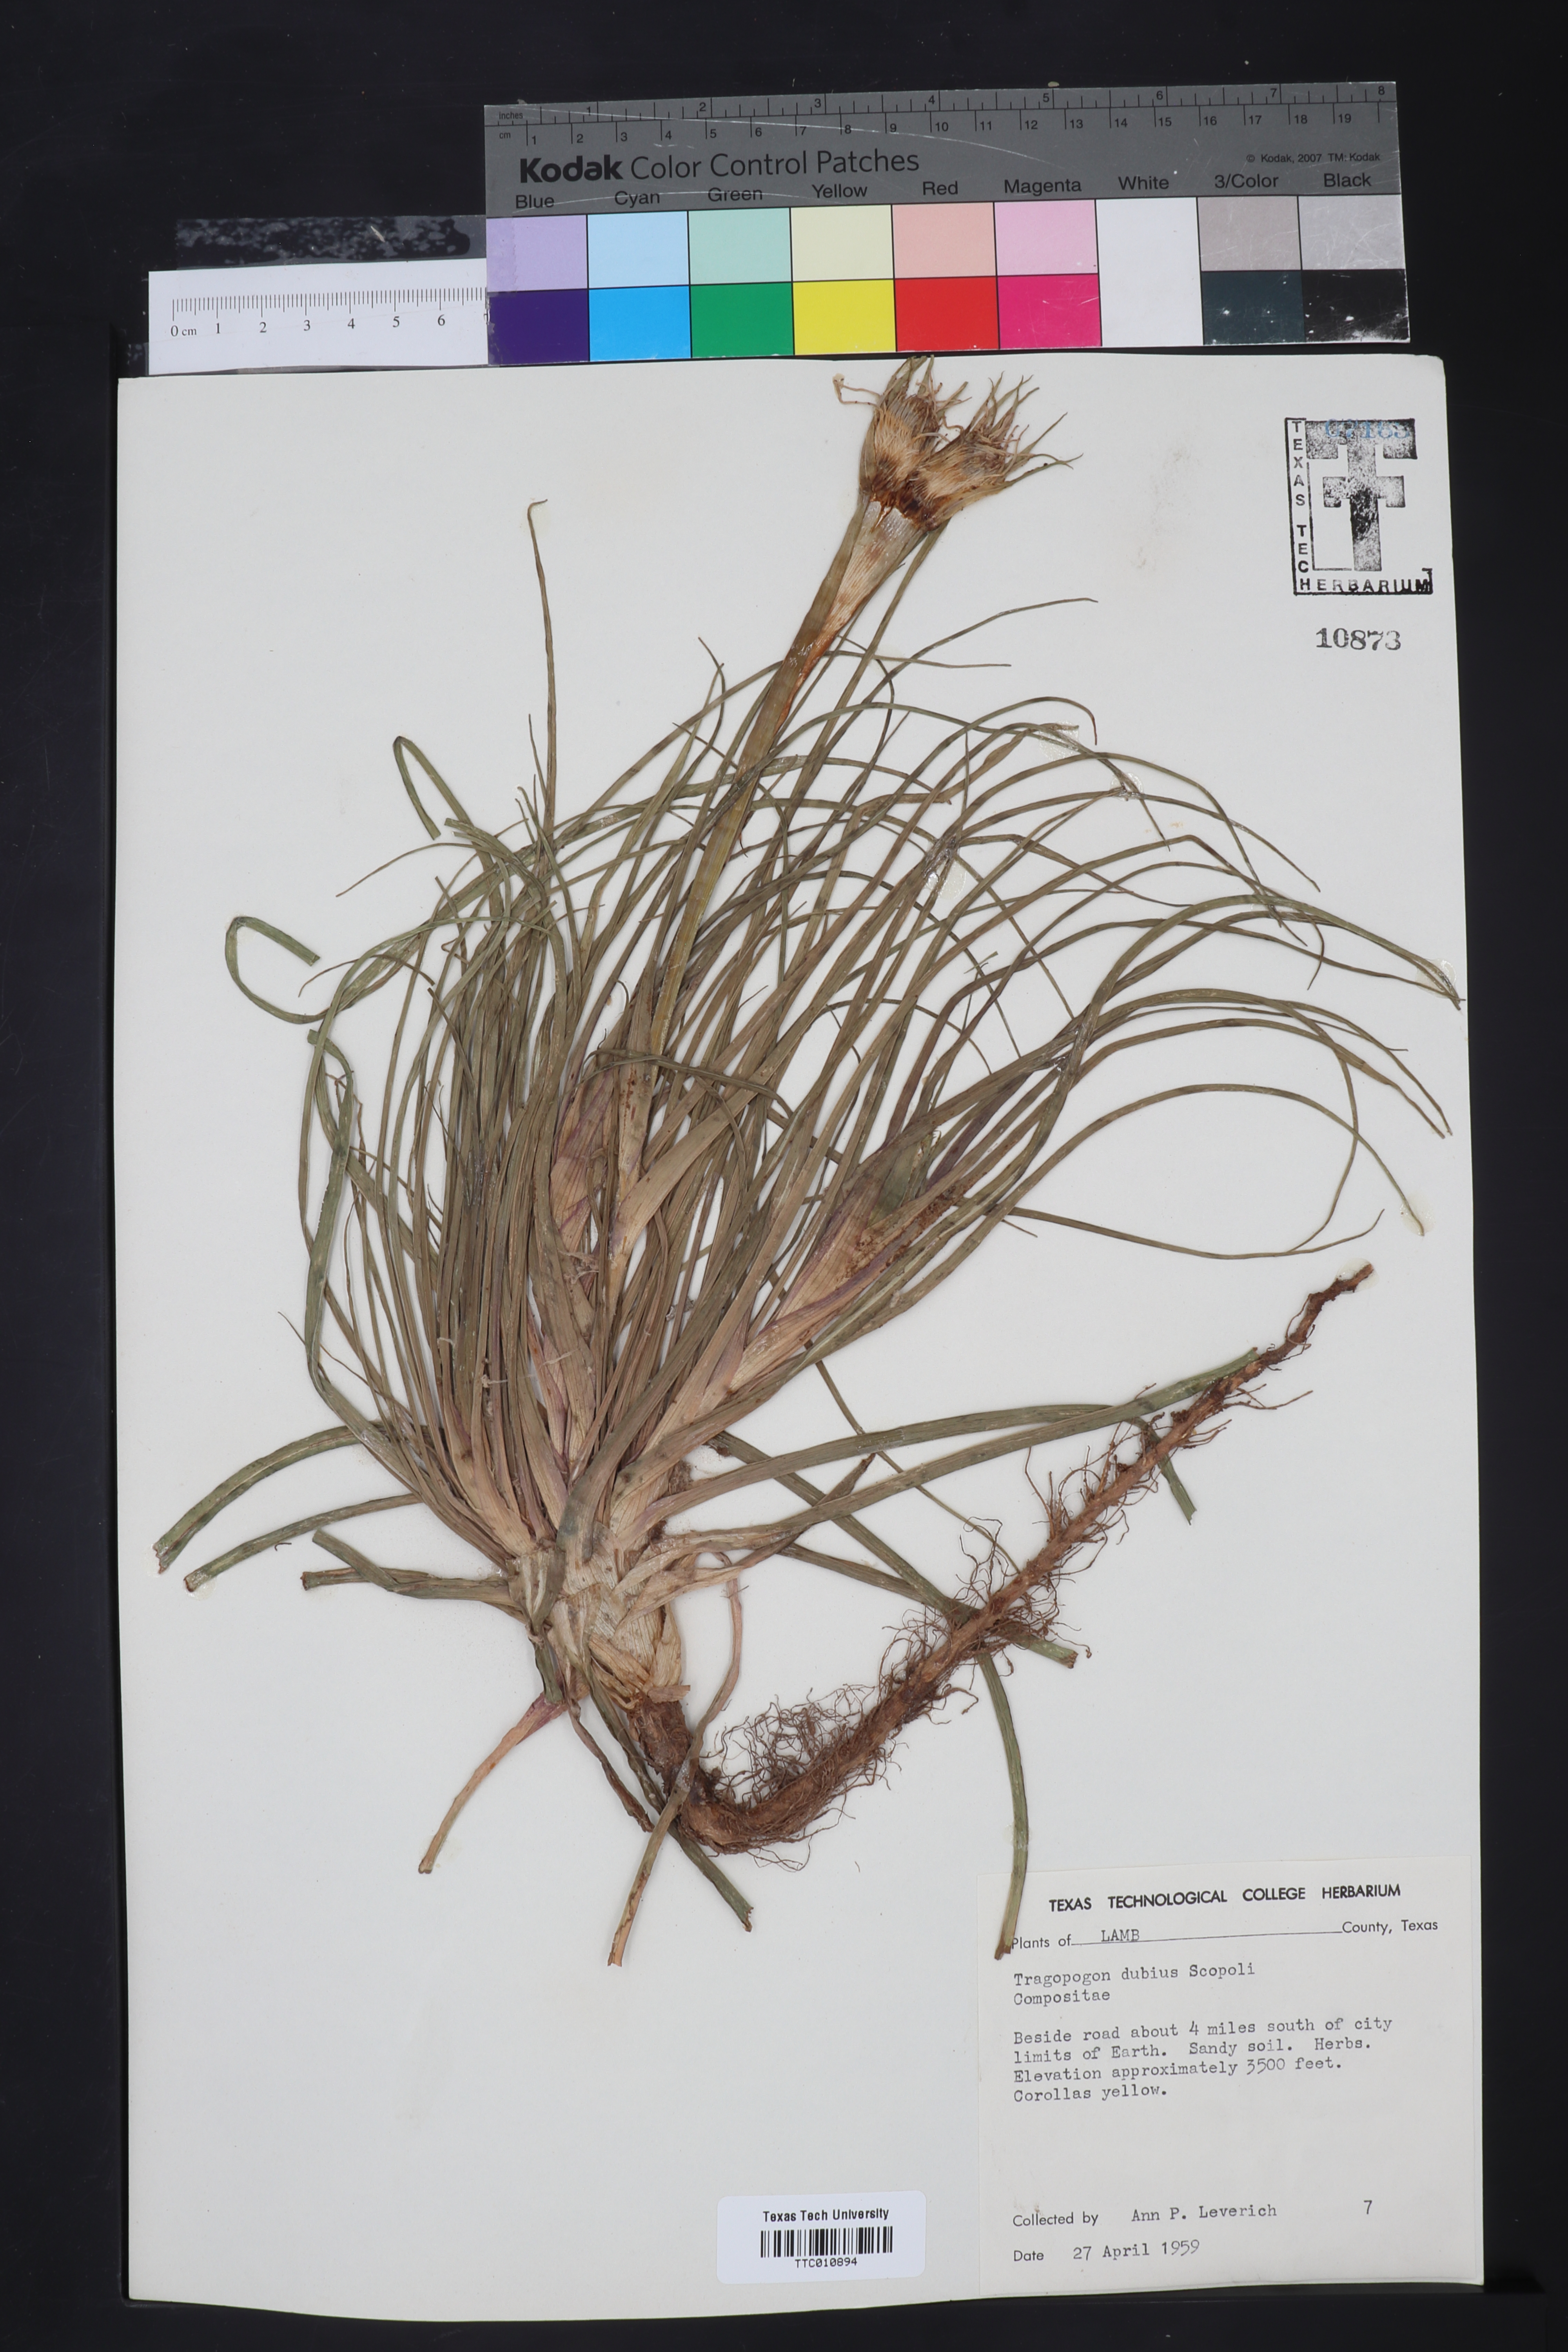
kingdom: Plantae
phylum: Tracheophyta
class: Magnoliopsida
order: Asterales
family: Asteraceae
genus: Tragopogon
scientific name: Tragopogon dubius
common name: Yellow salsify
